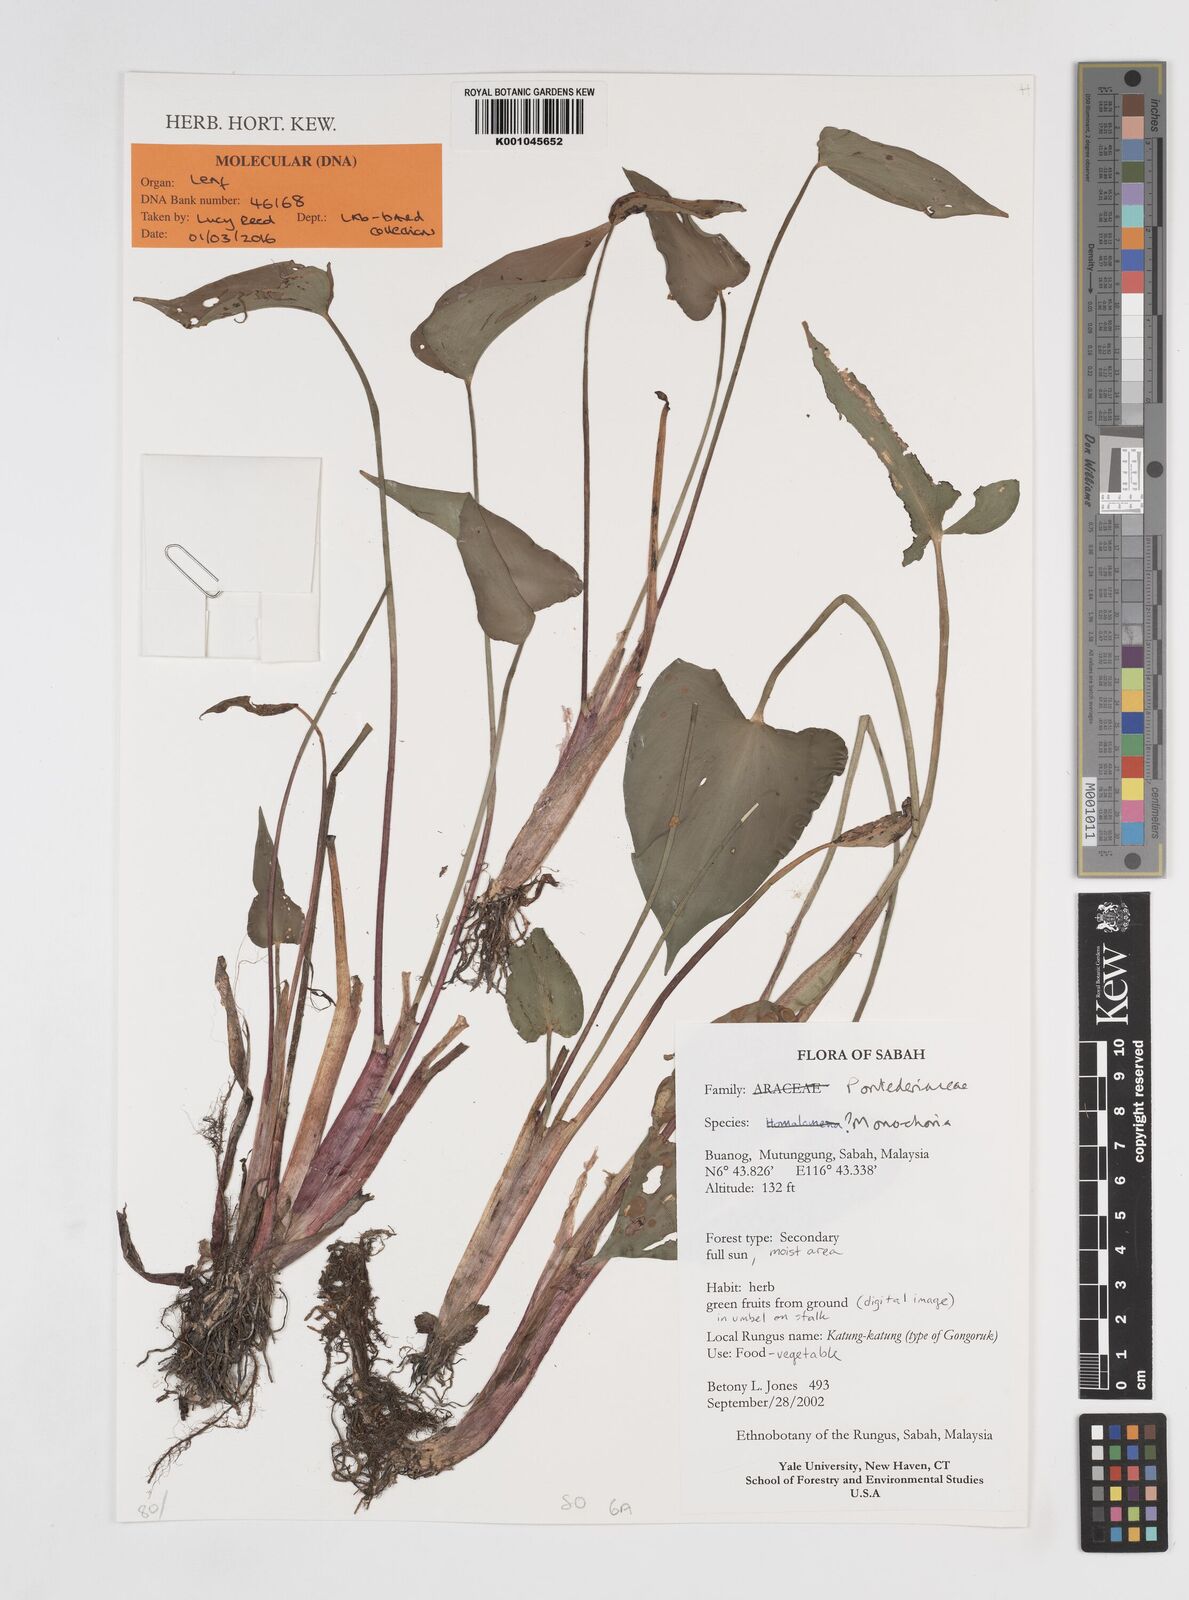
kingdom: Plantae
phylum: Tracheophyta
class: Liliopsida
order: Commelinales
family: Pontederiaceae
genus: Monochoria
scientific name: Monochoria
